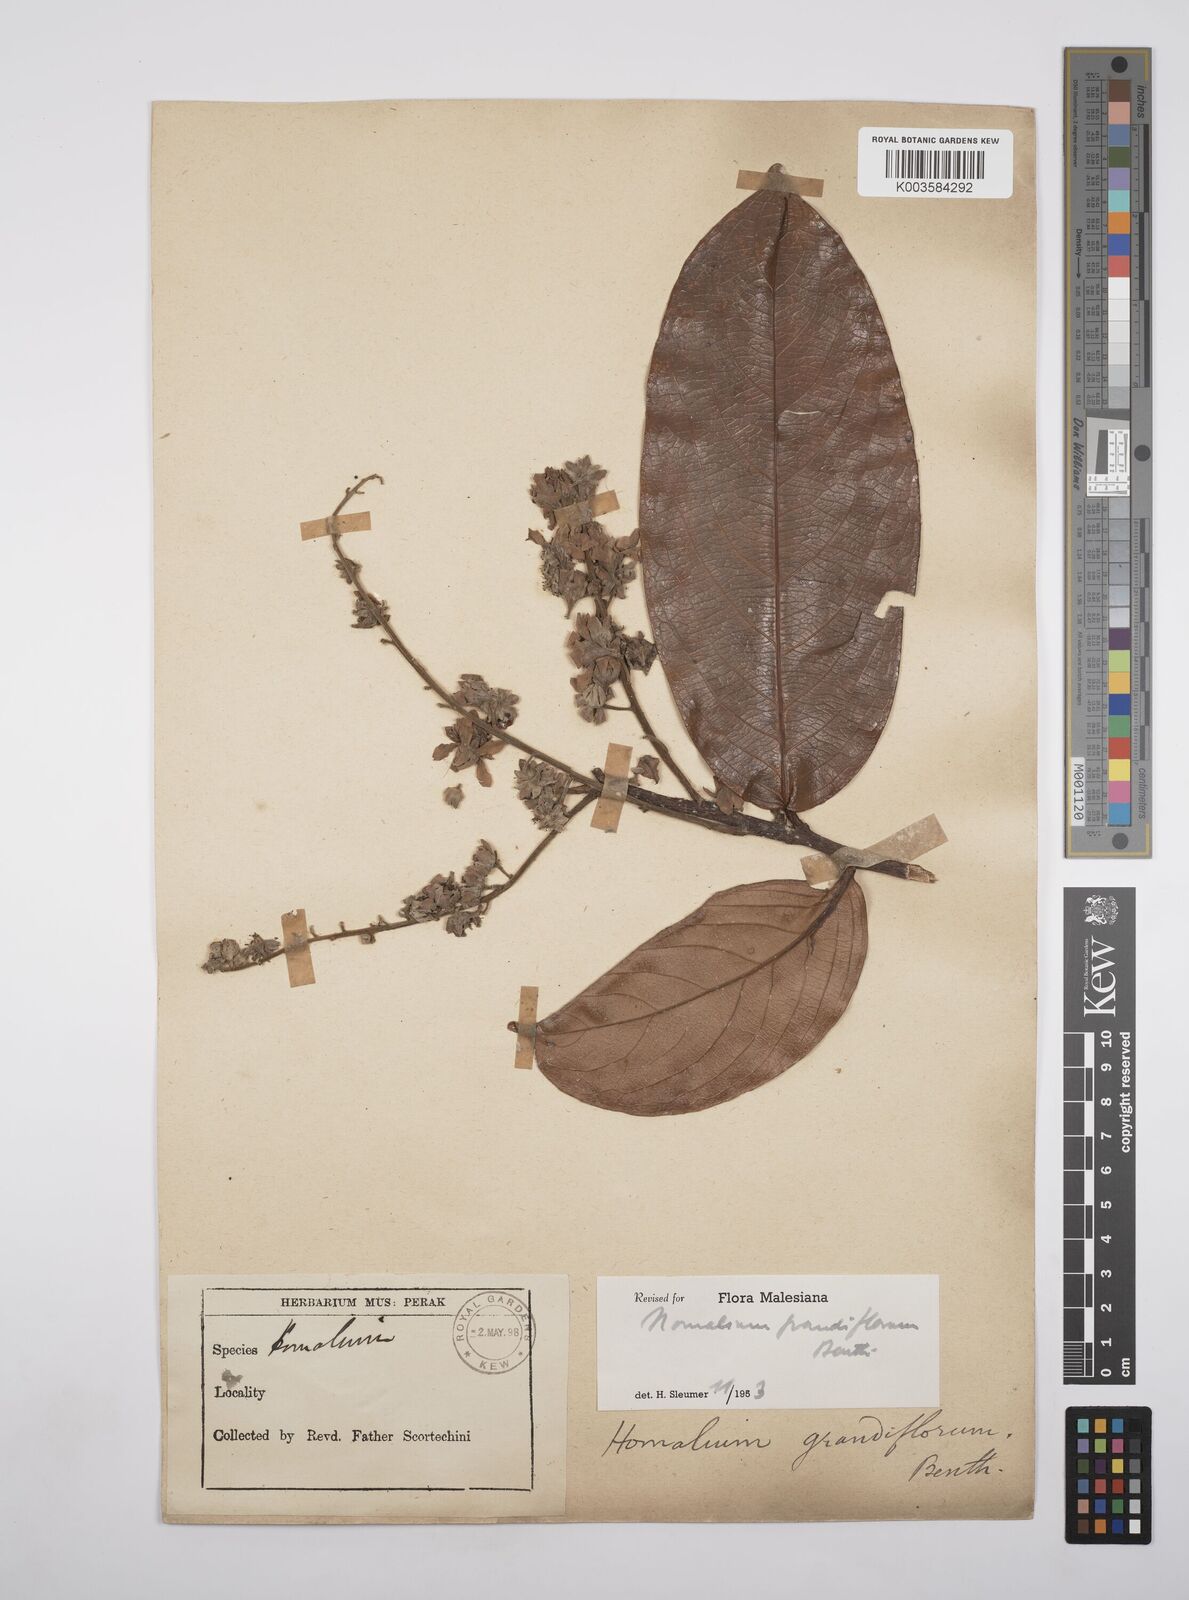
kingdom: Plantae
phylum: Tracheophyta
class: Magnoliopsida
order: Malpighiales
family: Salicaceae
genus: Homalium
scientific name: Homalium grandiflorum
